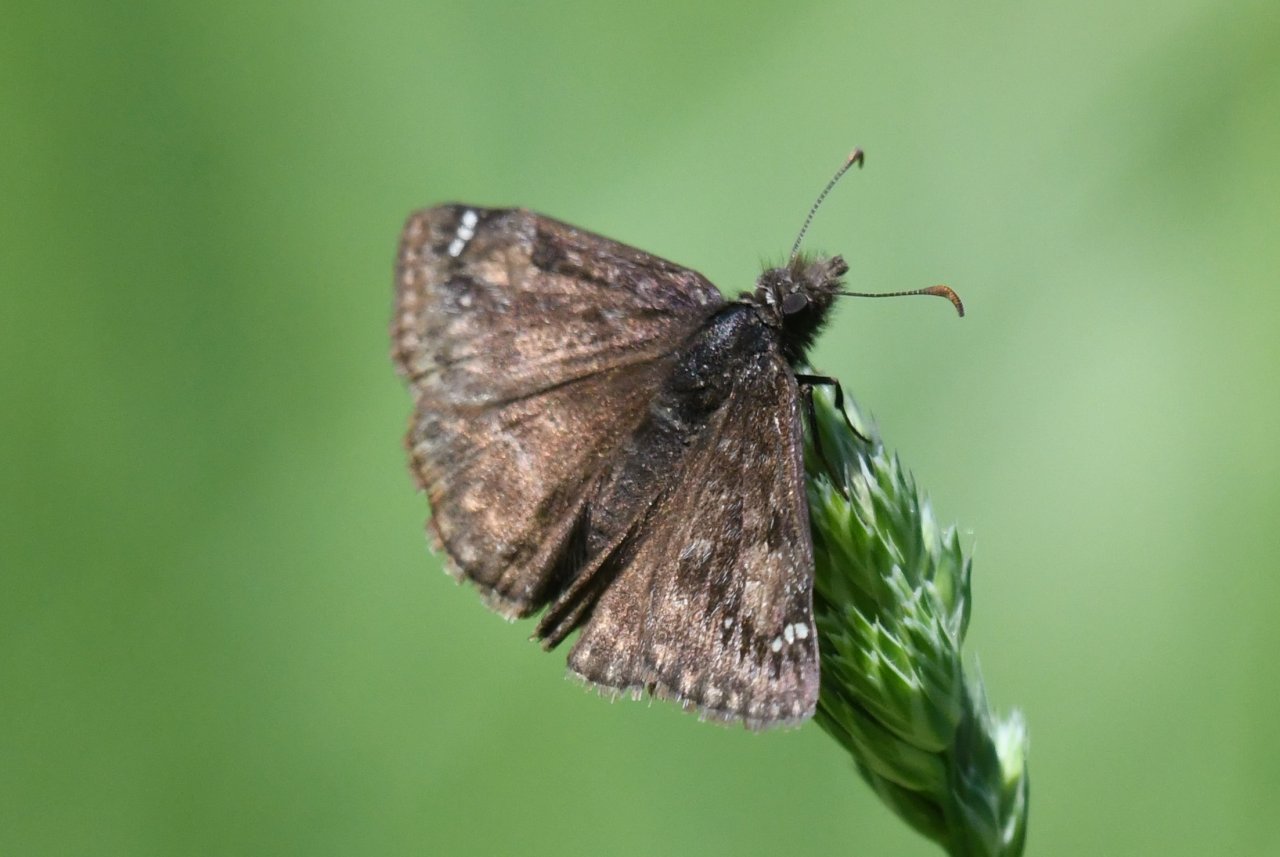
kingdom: Animalia
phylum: Arthropoda
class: Insecta
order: Lepidoptera
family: Hesperiidae
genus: Gesta
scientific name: Gesta
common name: Juvenal's Duskywing
